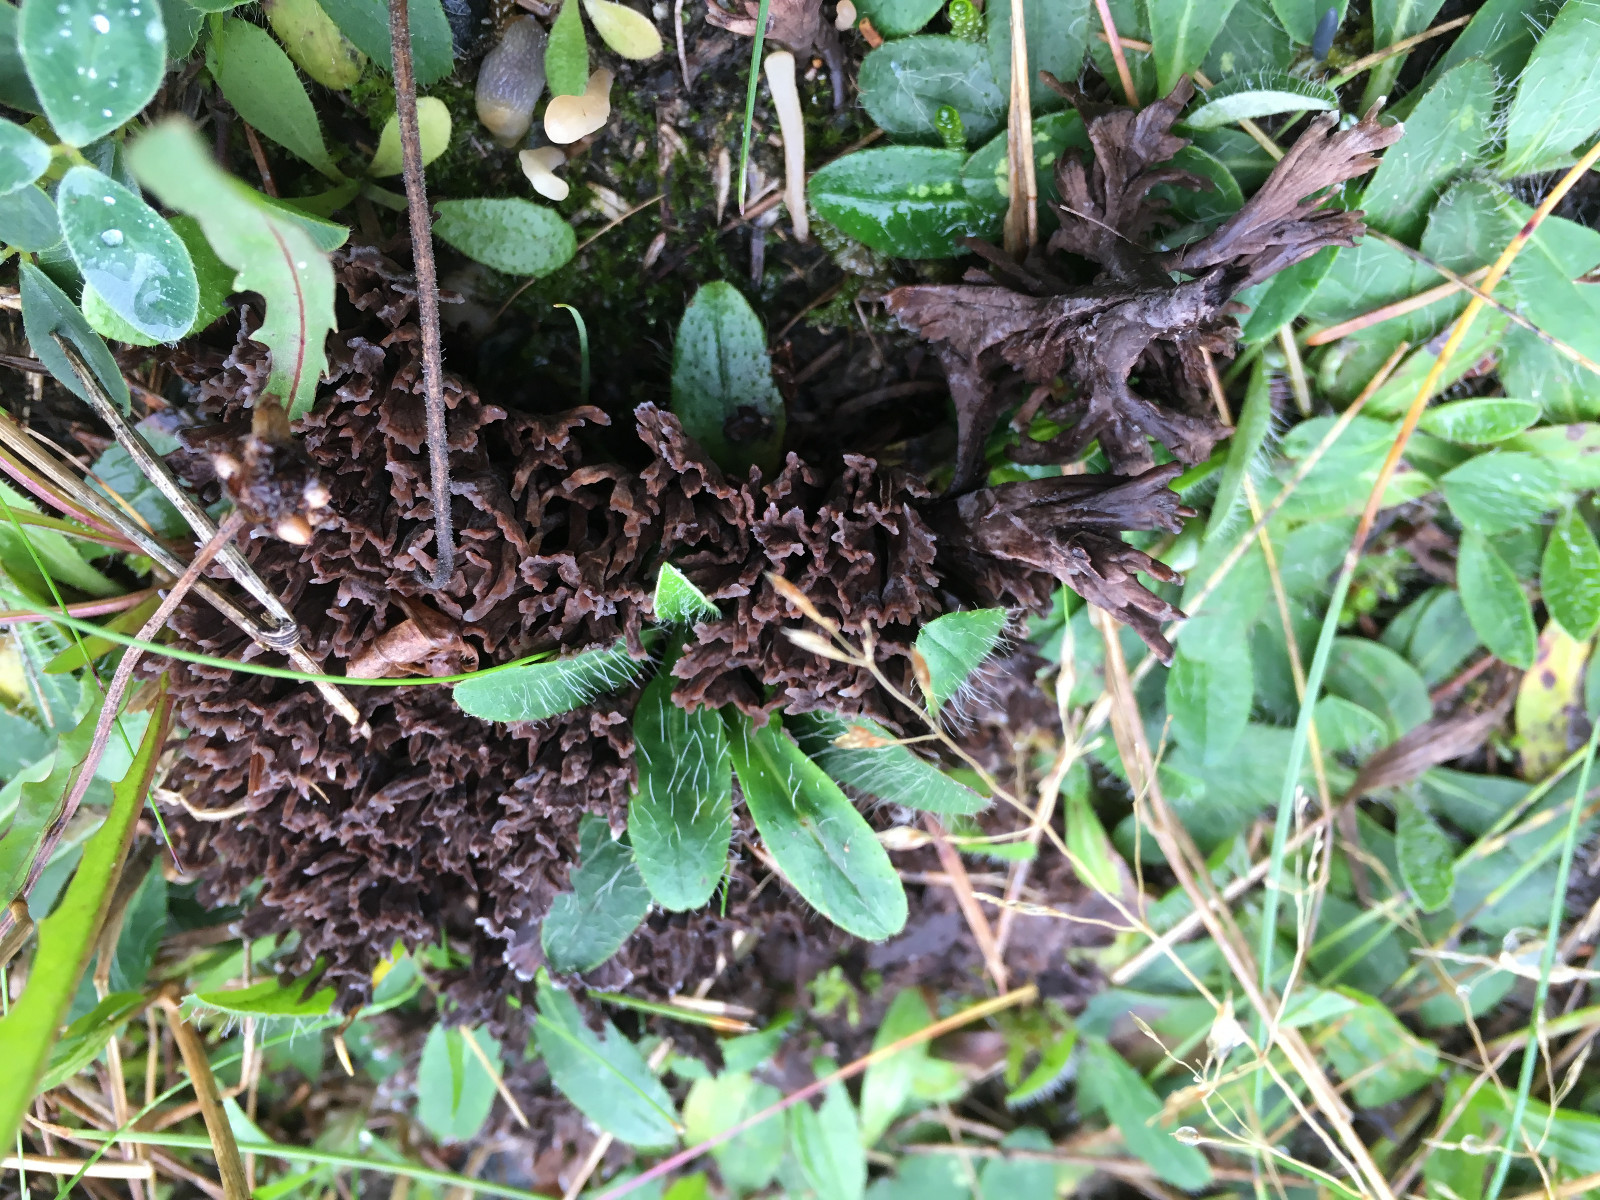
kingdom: Fungi
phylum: Basidiomycota
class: Agaricomycetes
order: Thelephorales
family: Thelephoraceae
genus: Thelephora
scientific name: Thelephora palmata
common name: grenet frynsesvamp
